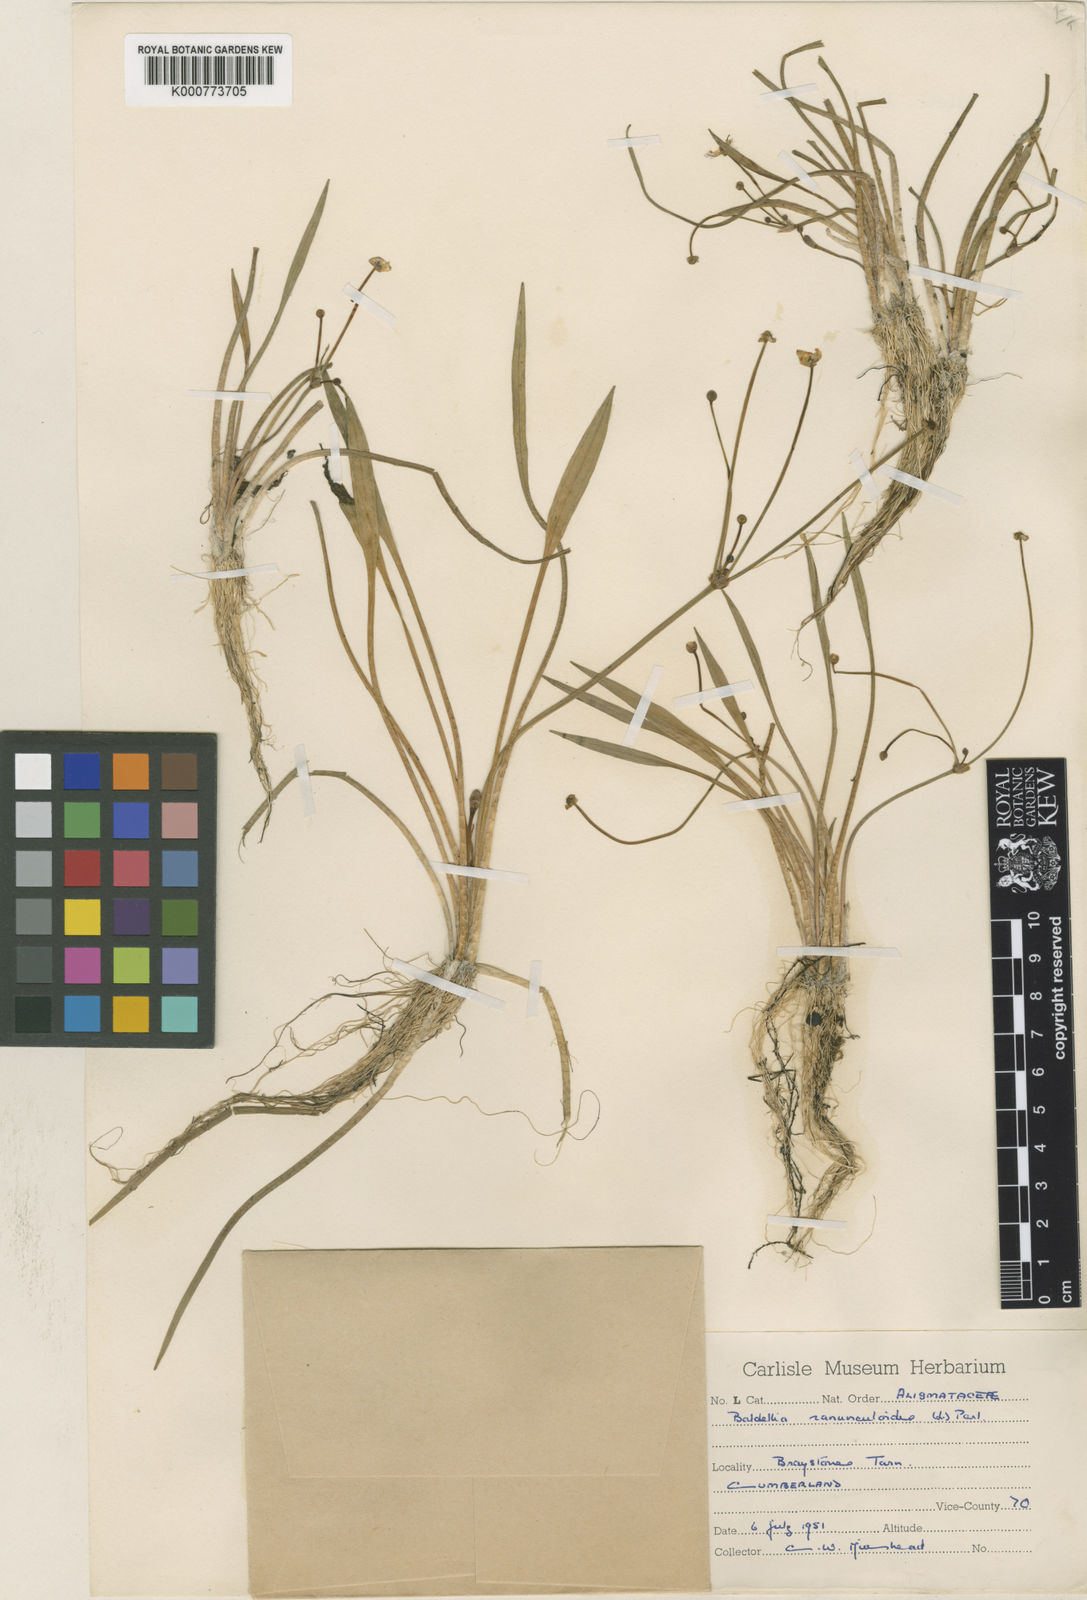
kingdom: Plantae
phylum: Tracheophyta
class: Liliopsida
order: Alismatales
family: Alismataceae
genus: Baldellia
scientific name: Baldellia ranunculoides
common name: Lesser water-plantain
